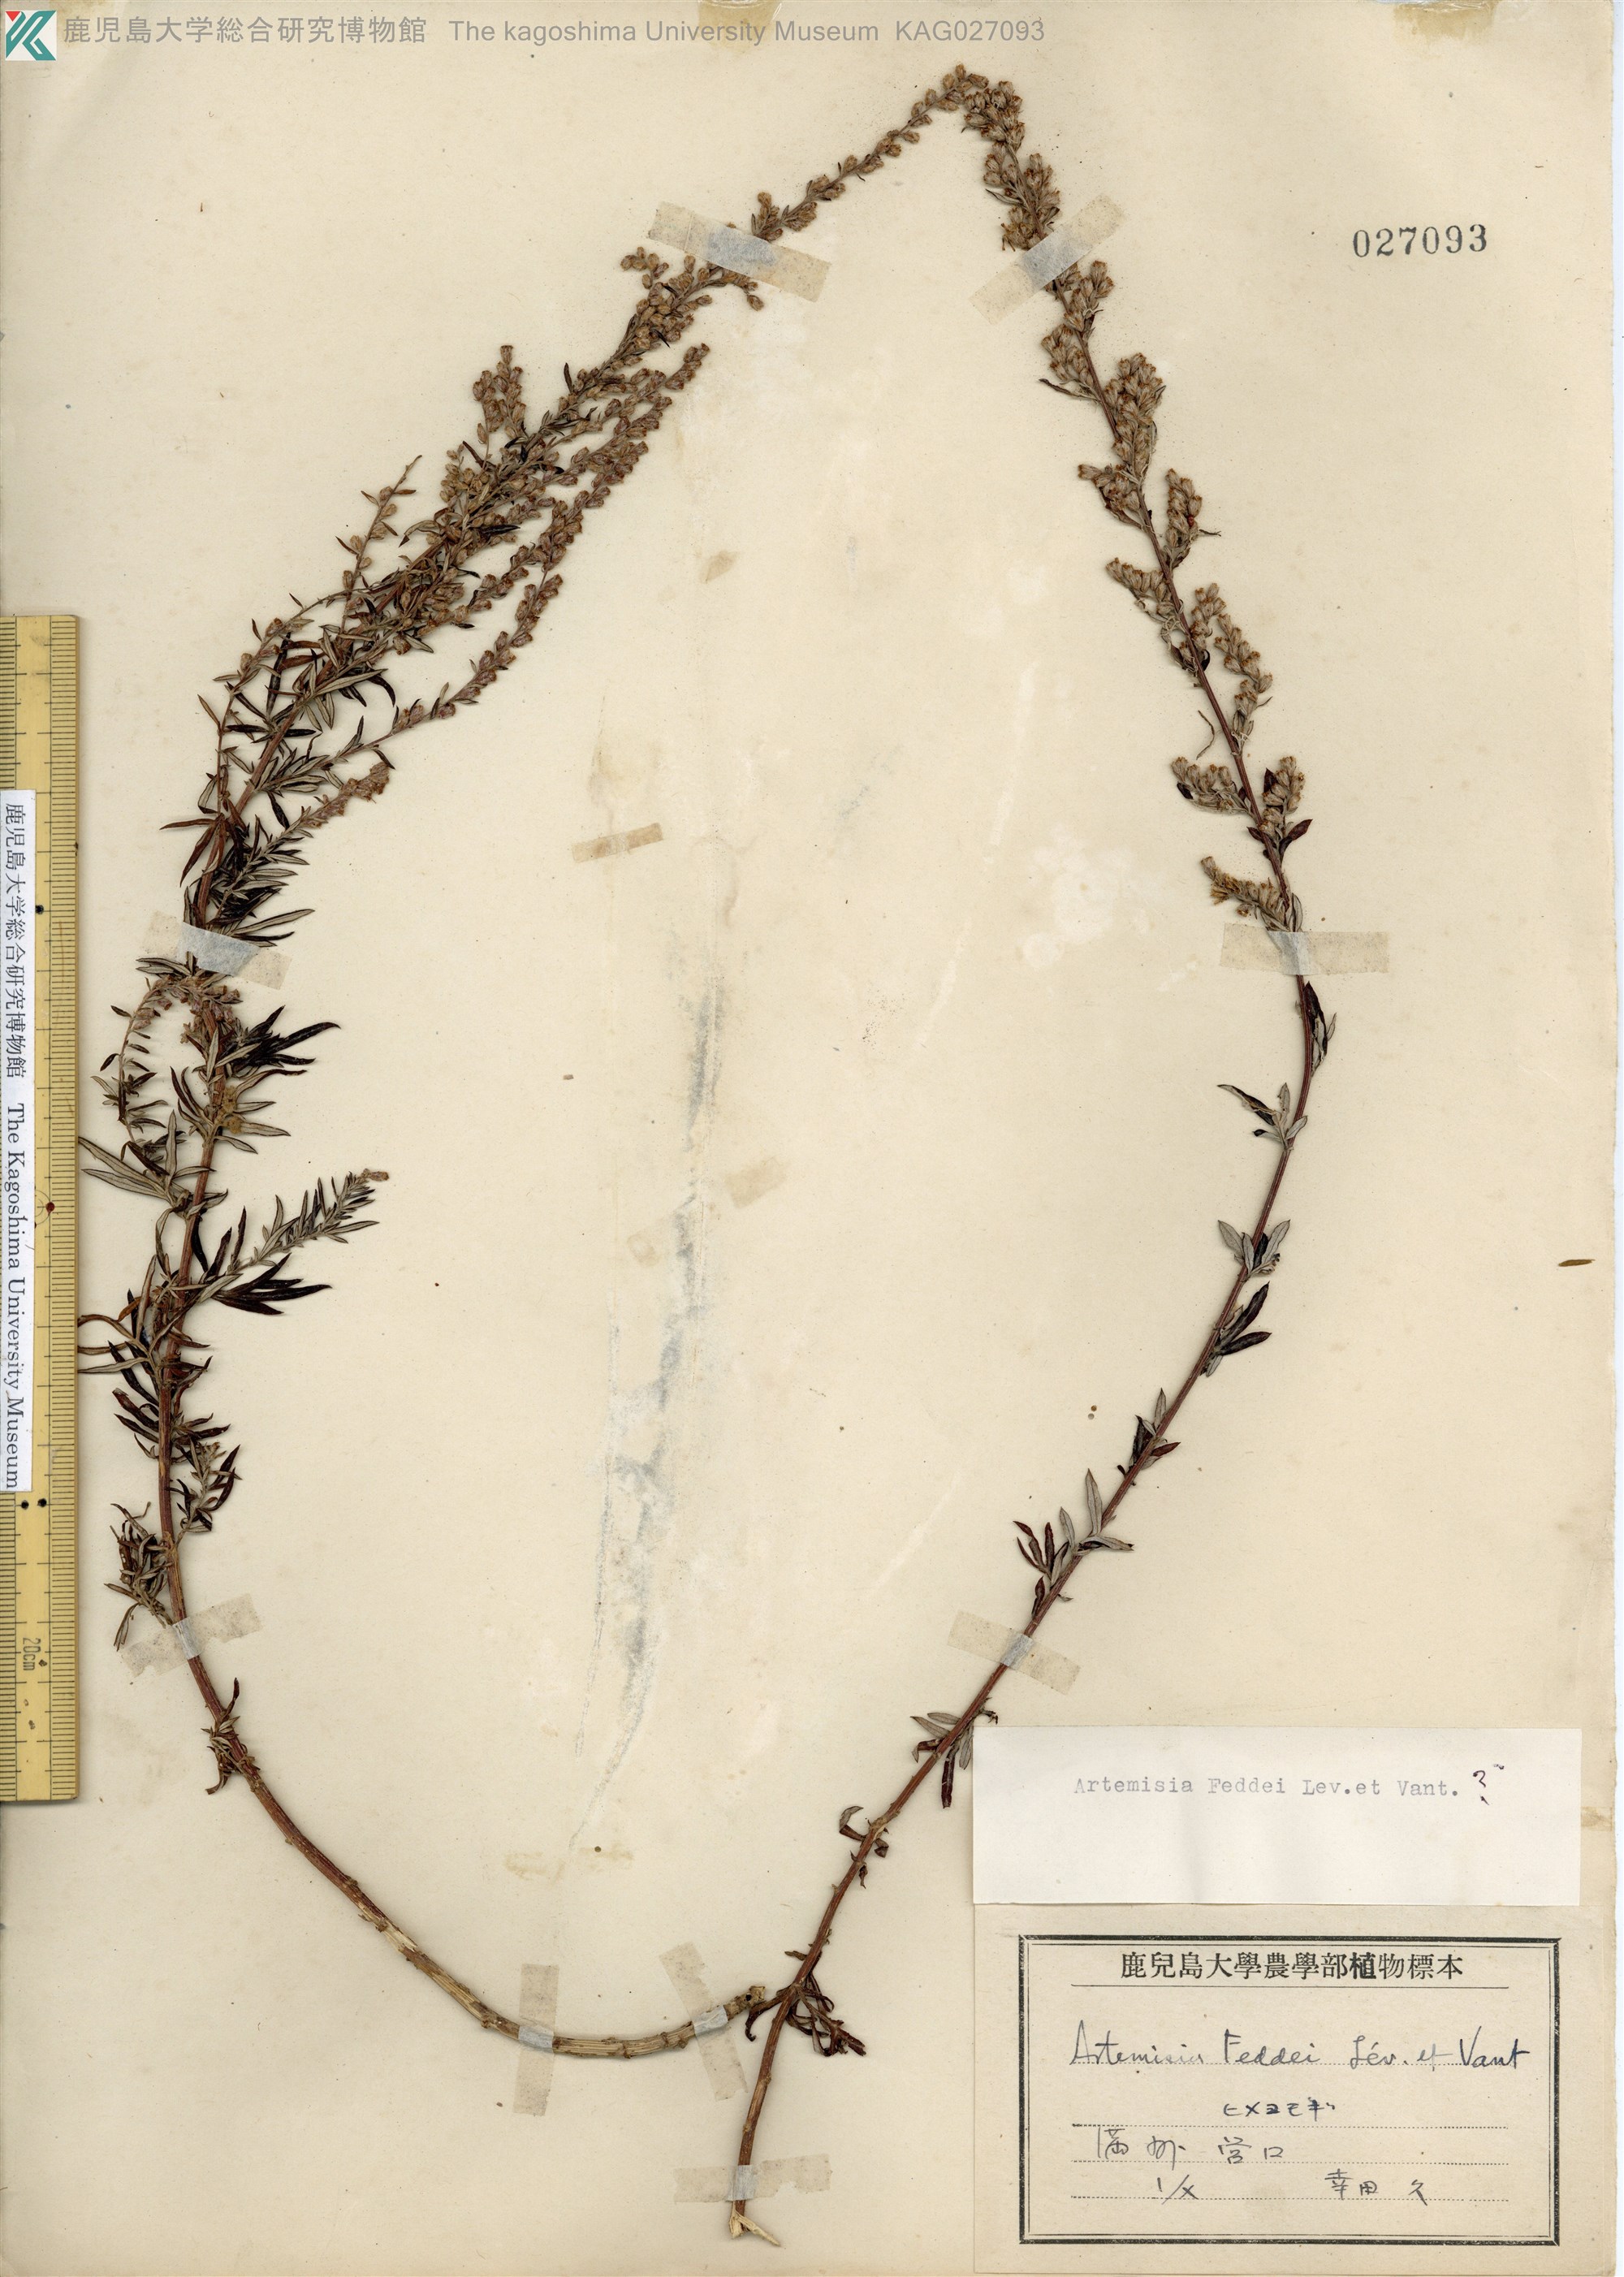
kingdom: Plantae
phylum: Tracheophyta
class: Magnoliopsida
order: Asterales
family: Asteraceae
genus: Artemisia
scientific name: Artemisia lancea
